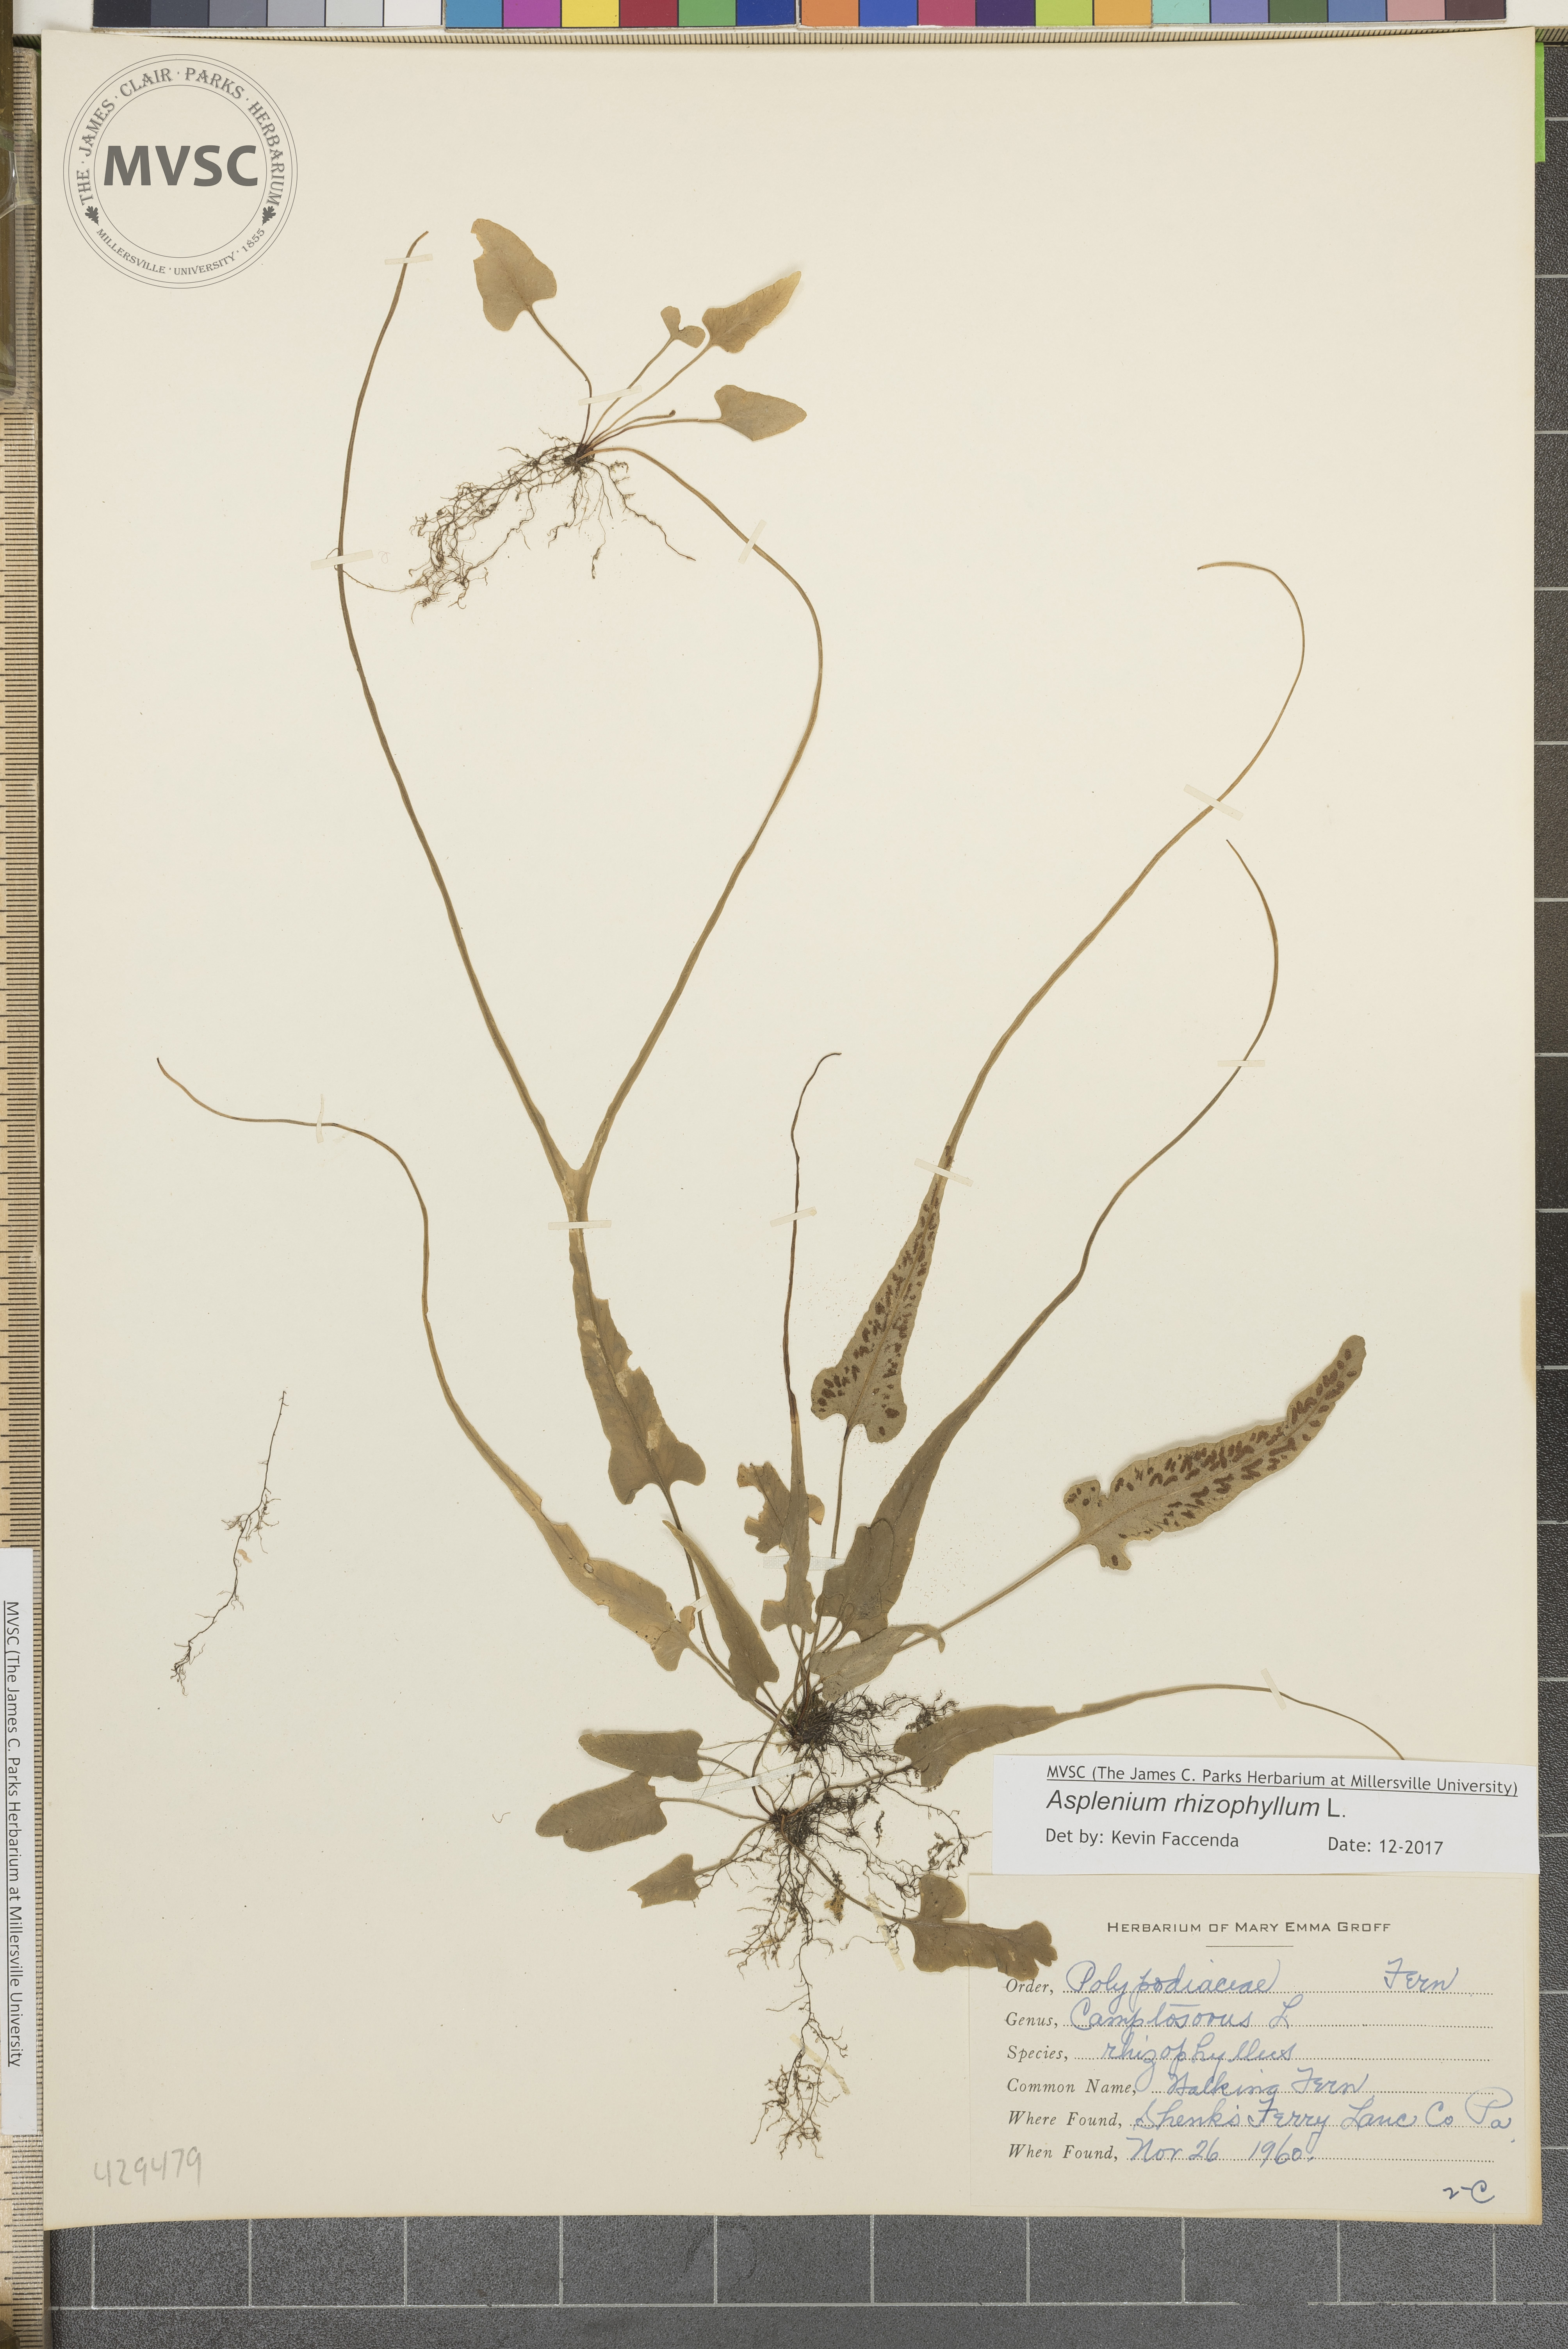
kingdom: Plantae
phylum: Tracheophyta
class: Polypodiopsida
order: Polypodiales
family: Aspleniaceae
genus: Asplenium
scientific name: Asplenium rhizophyllum
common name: Walking fern
